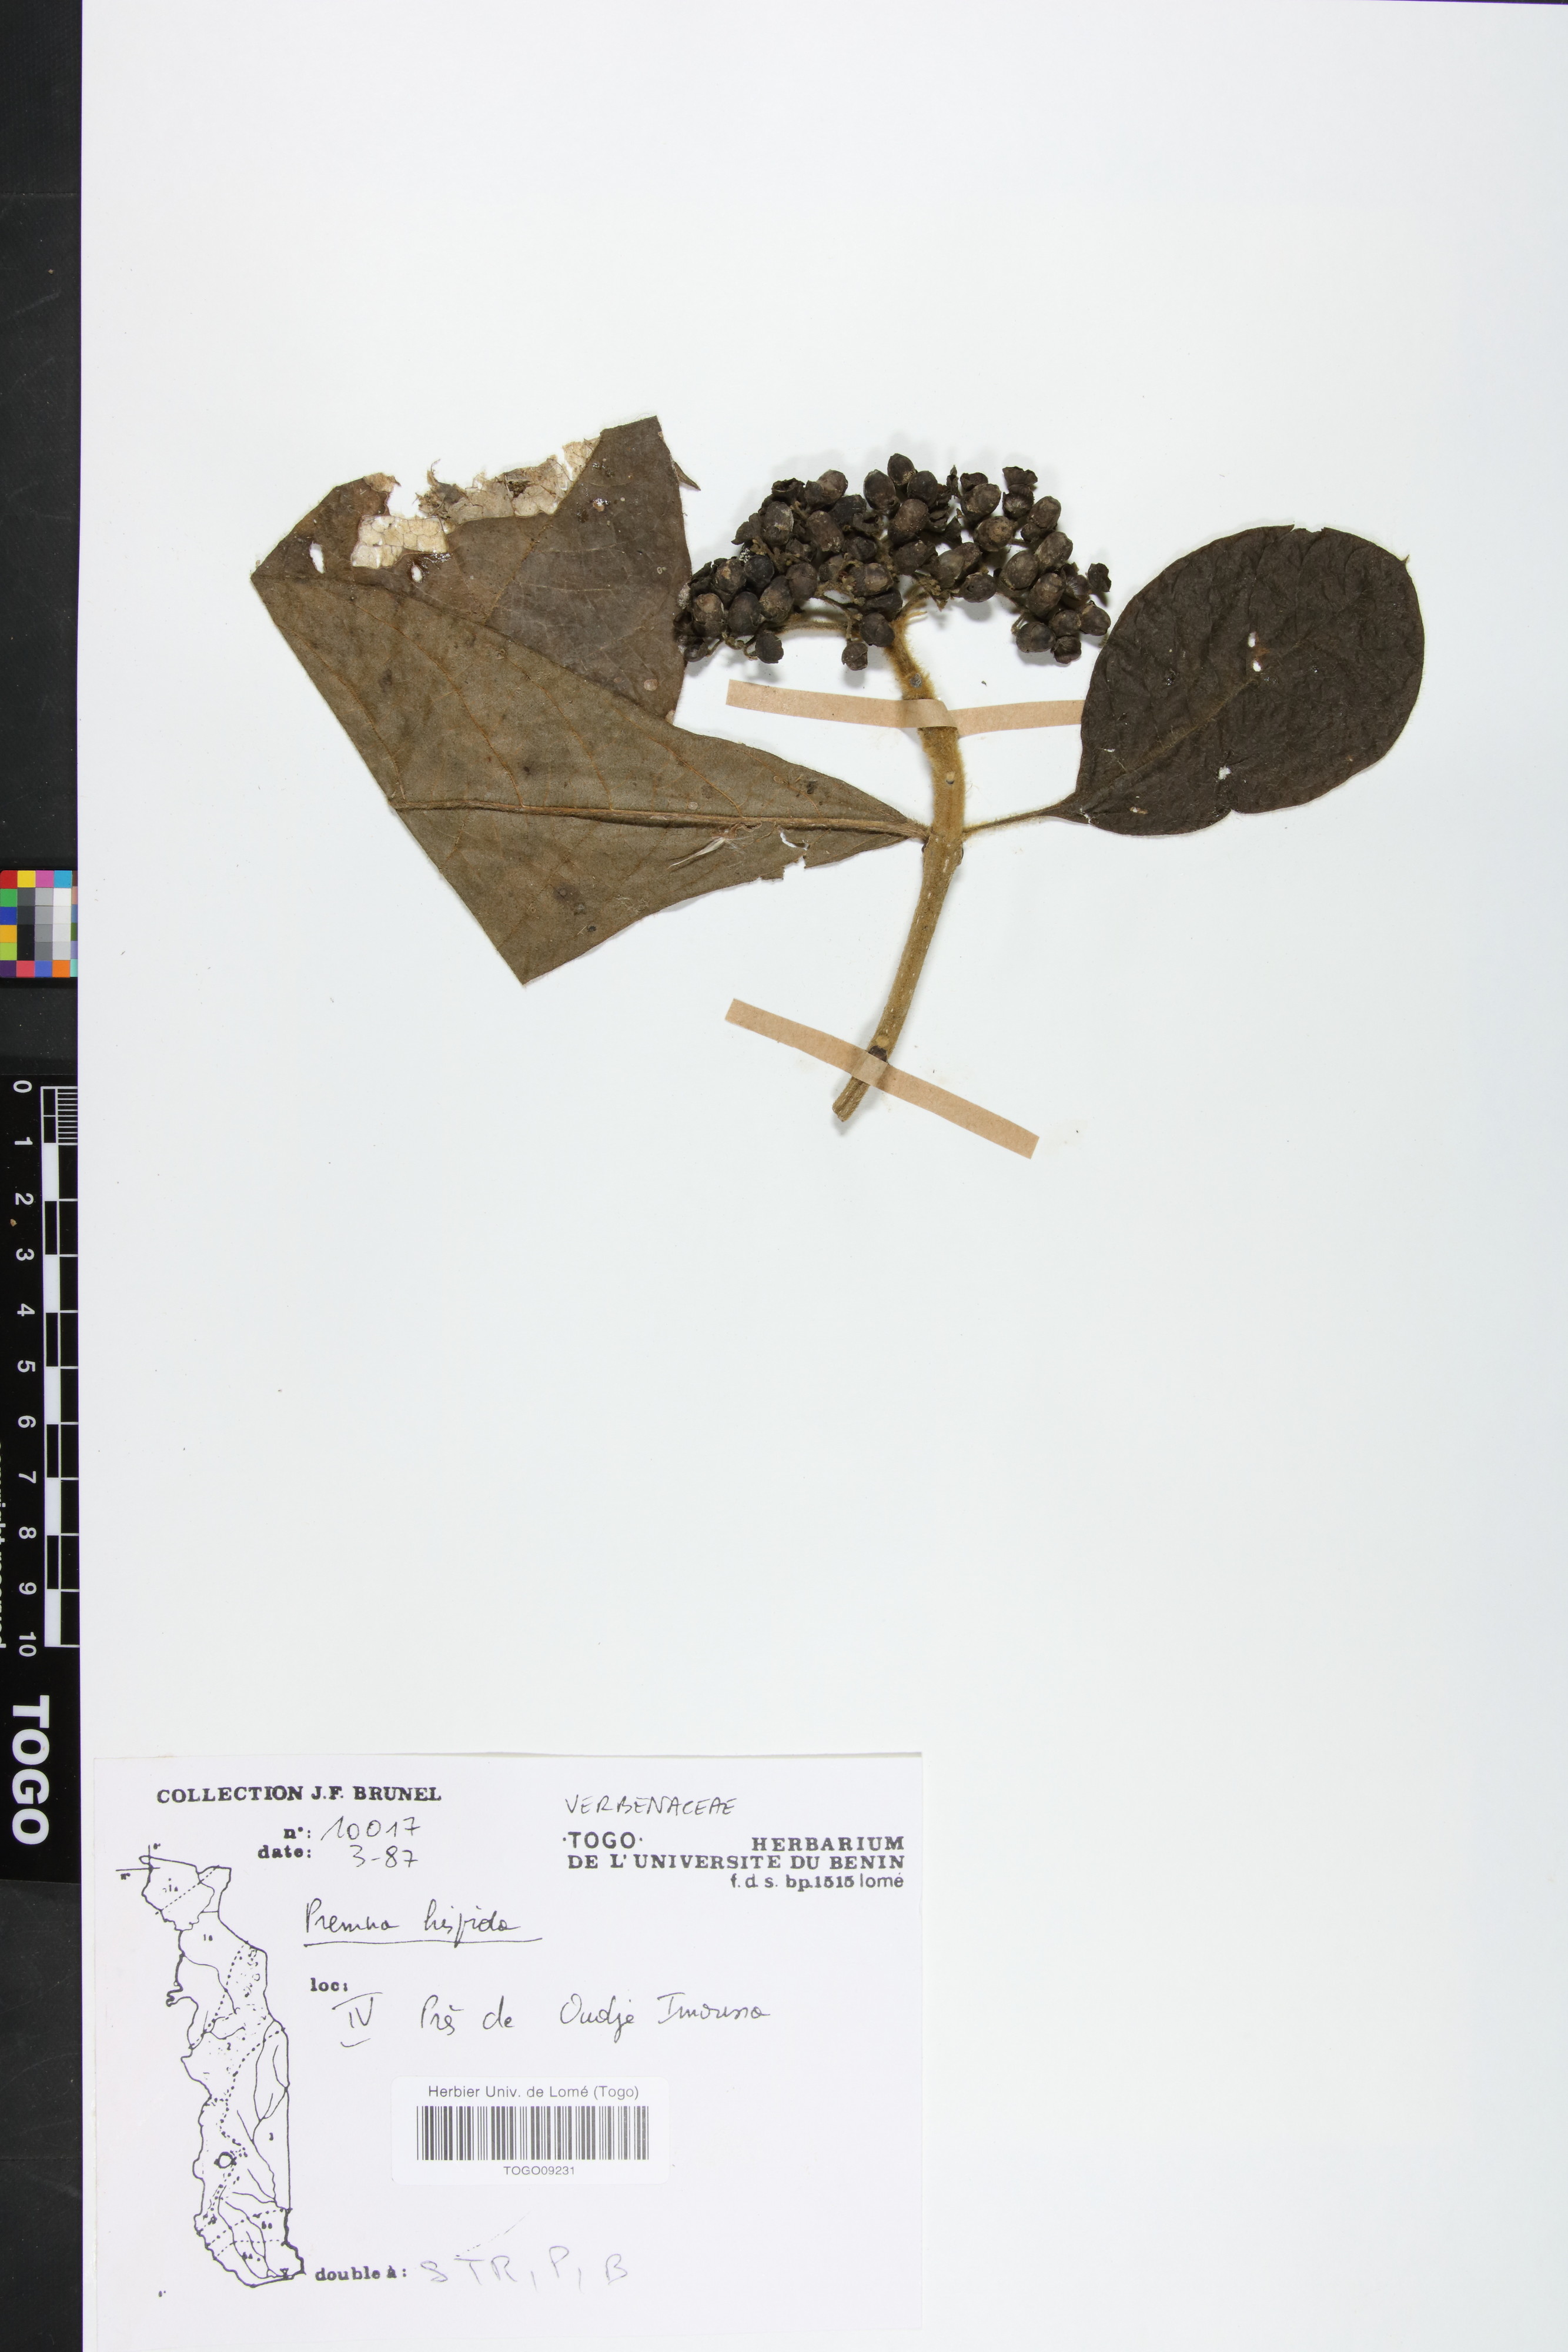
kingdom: Plantae
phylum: Tracheophyta
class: Magnoliopsida
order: Lamiales
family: Lamiaceae
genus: Premna
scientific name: Premna hispida
